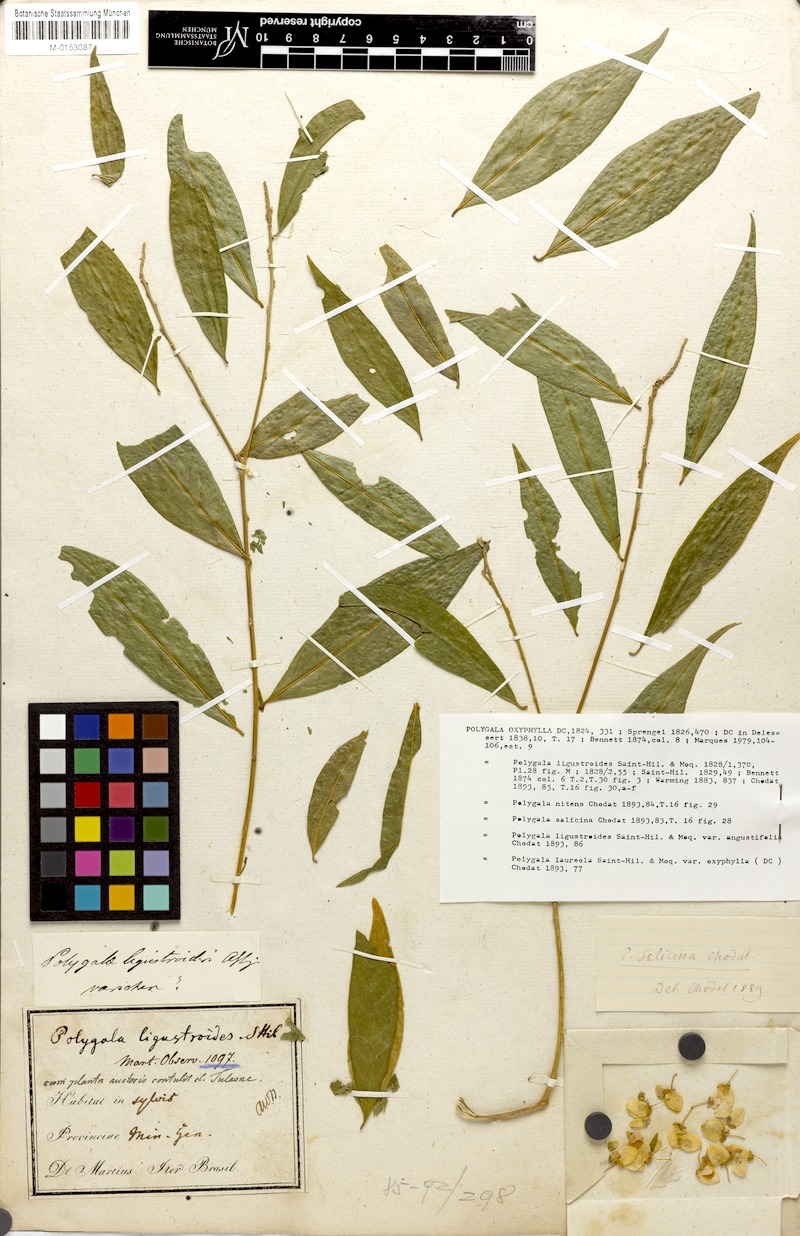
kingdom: Plantae
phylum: Tracheophyta
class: Magnoliopsida
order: Fabales
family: Polygalaceae
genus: Caamembeca
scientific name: Caamembeca oxyphylla
